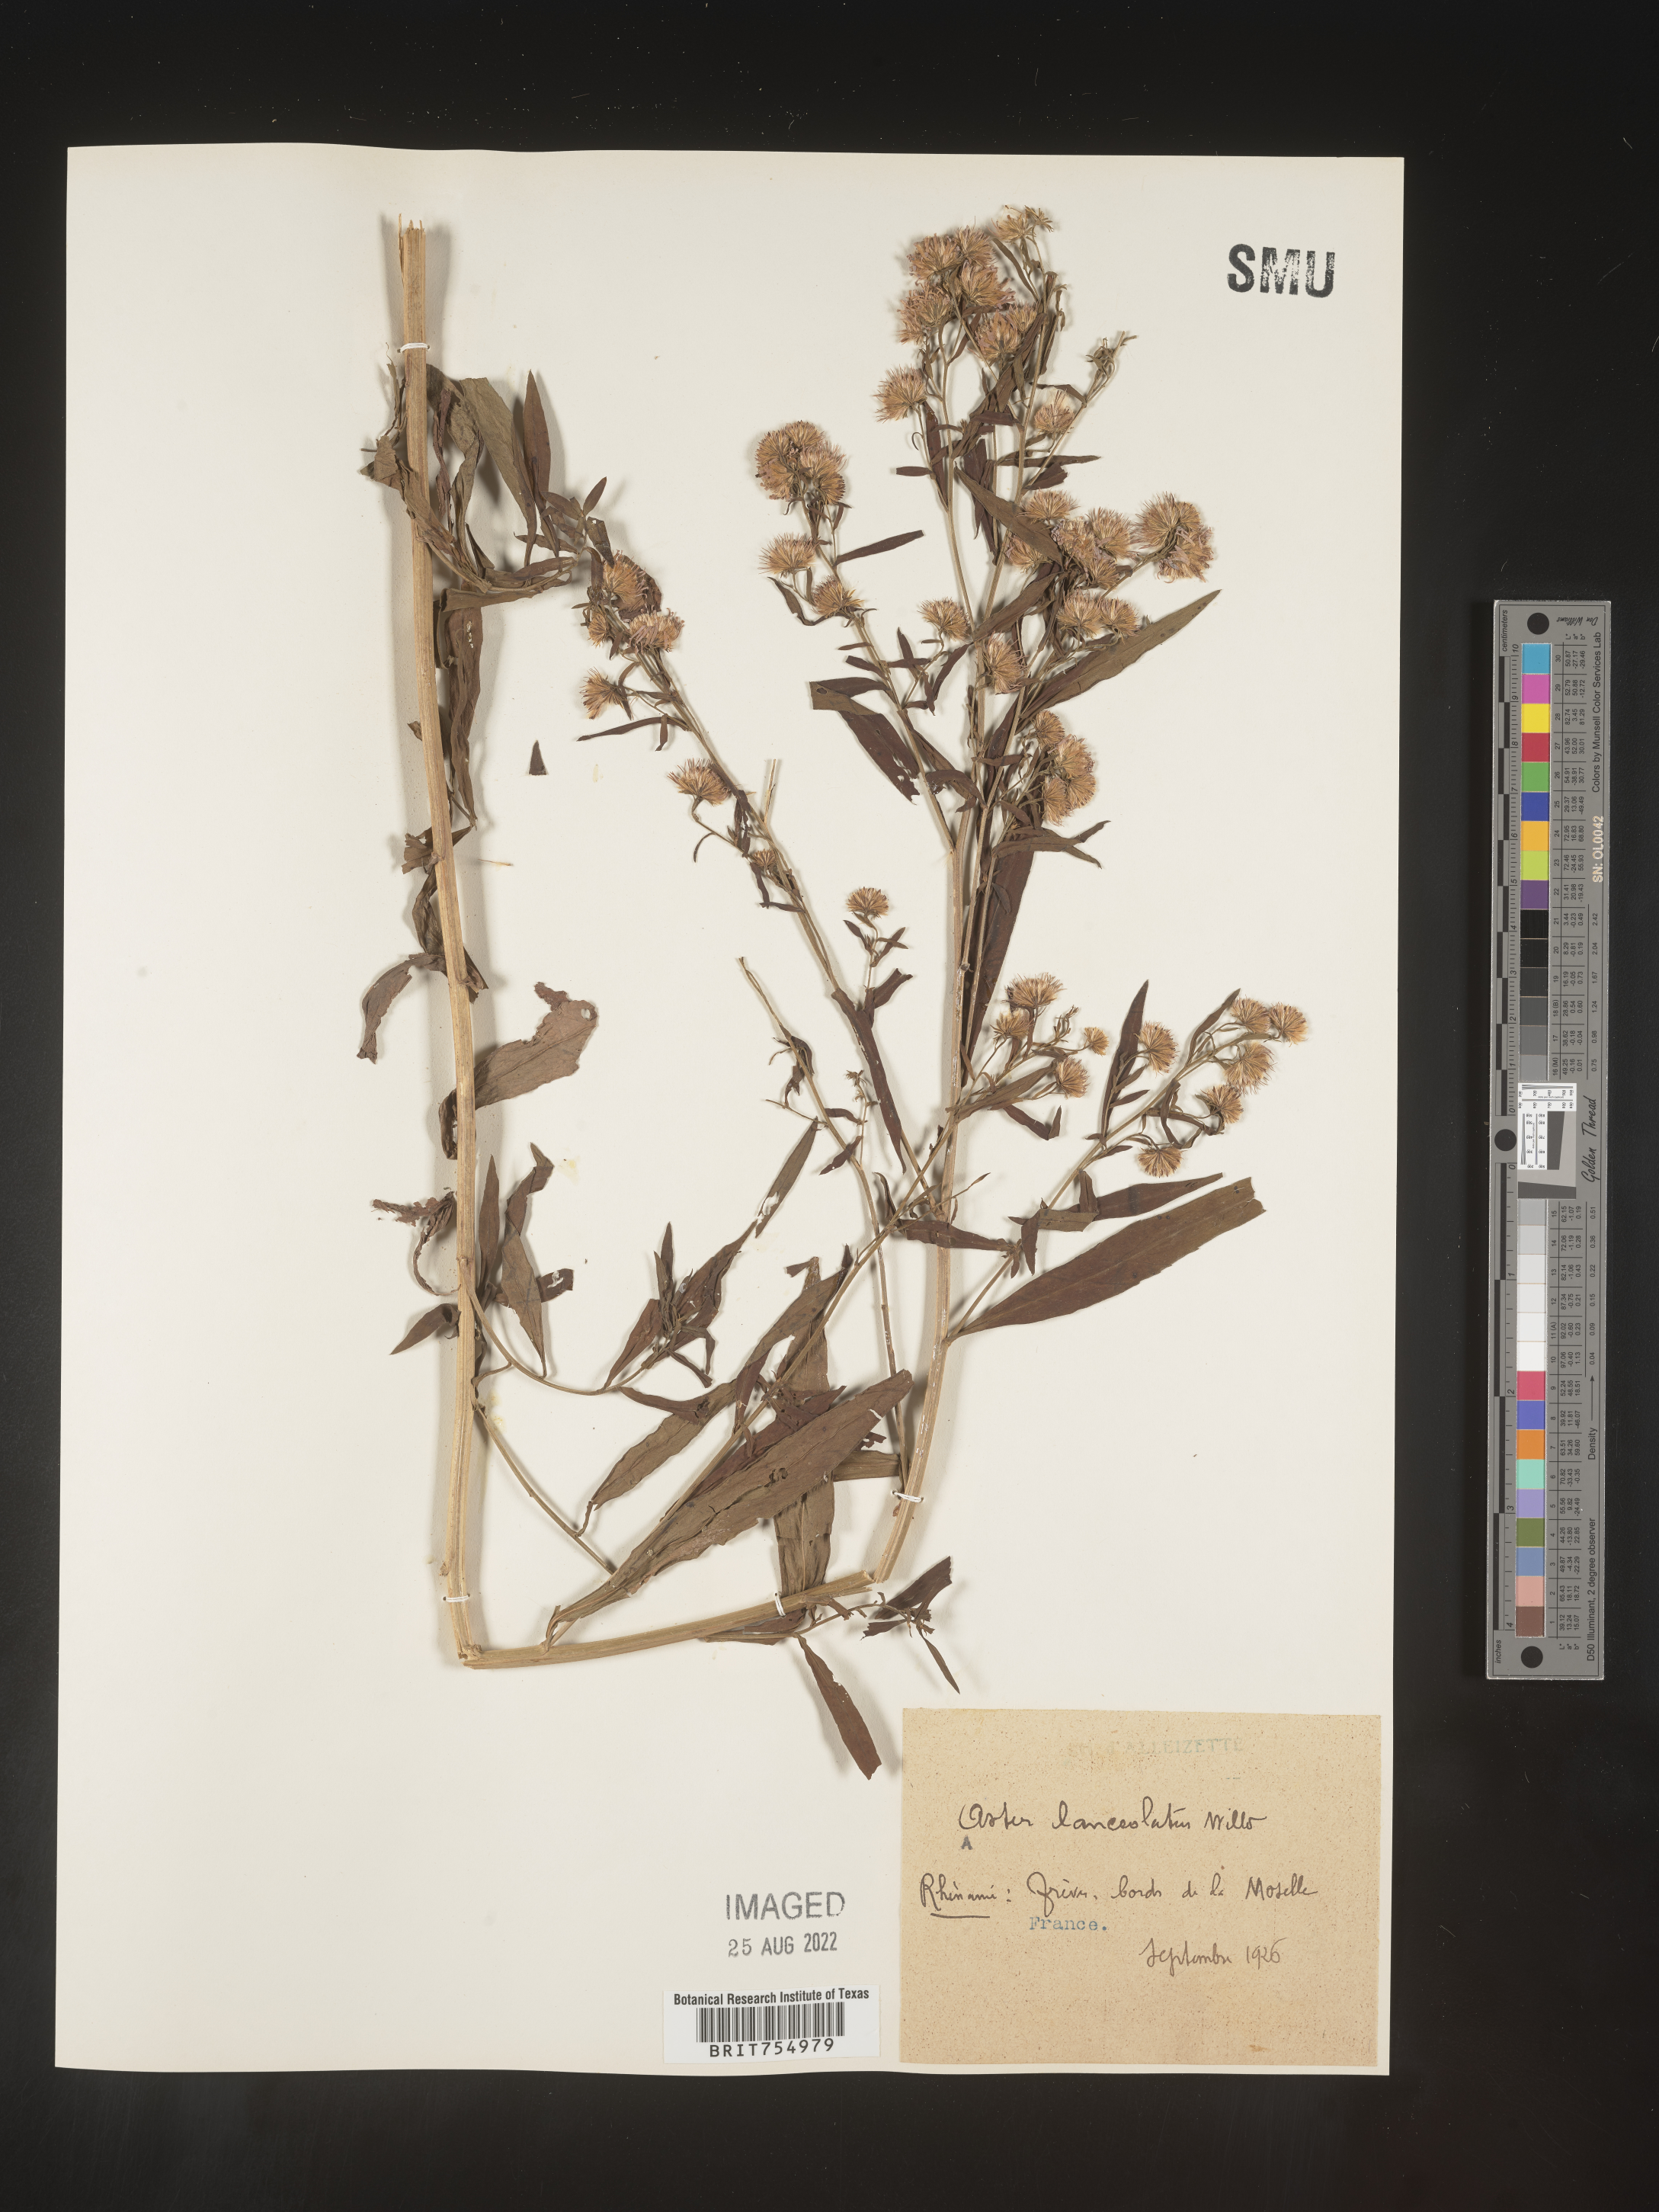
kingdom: Plantae
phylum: Tracheophyta
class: Magnoliopsida
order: Asterales
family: Asteraceae
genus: Symphyotrichum
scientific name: Symphyotrichum
